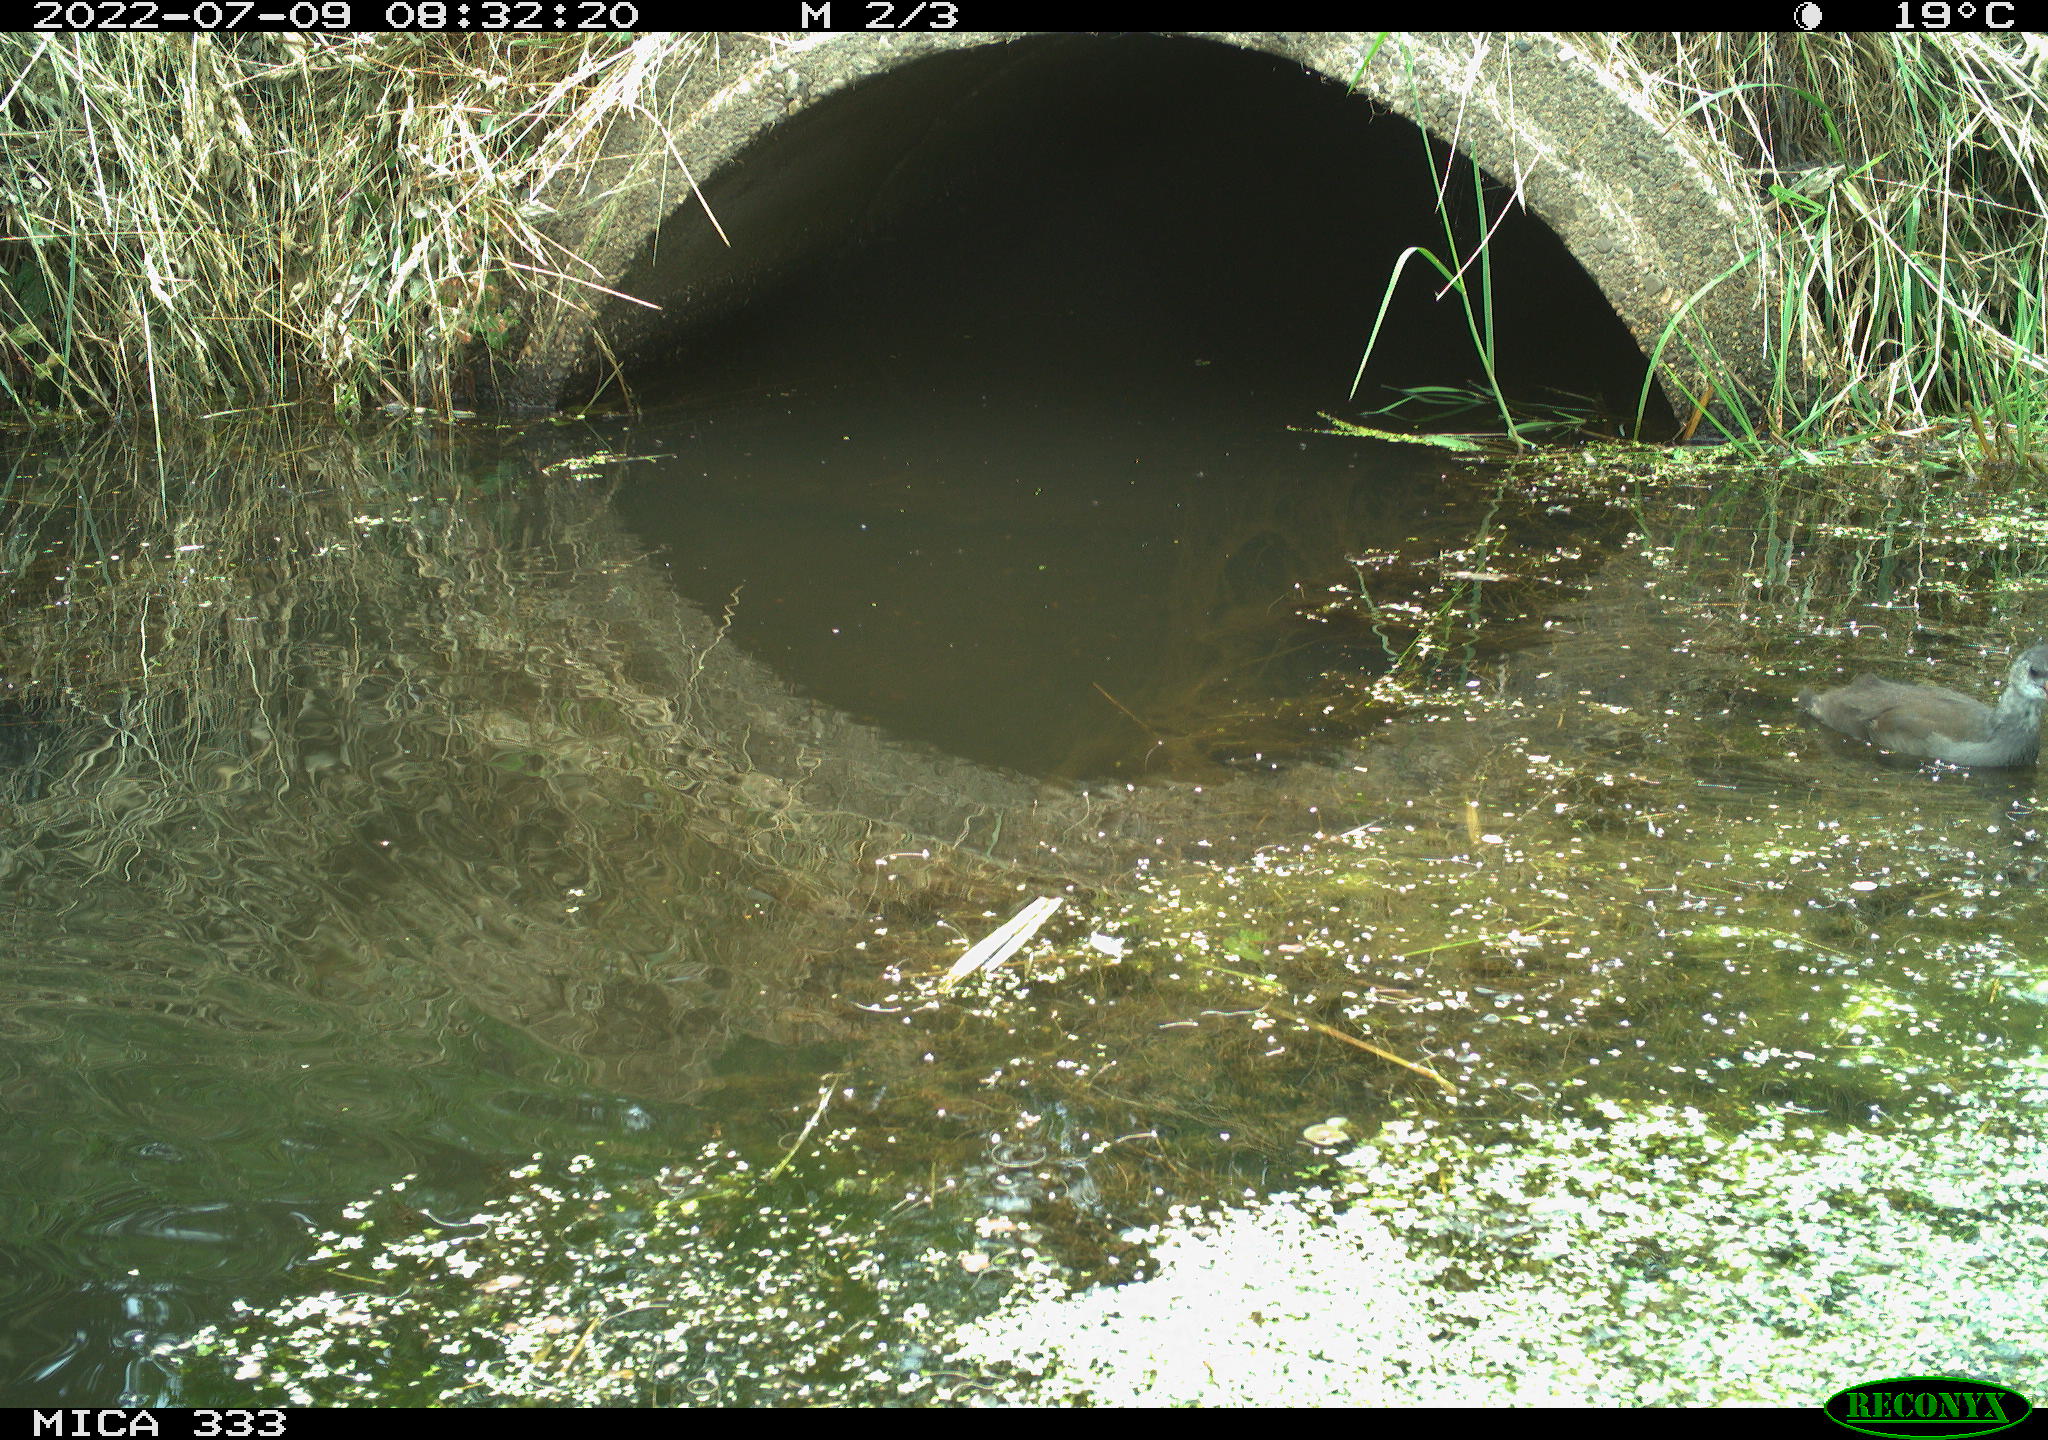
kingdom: Animalia
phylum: Chordata
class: Aves
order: Gruiformes
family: Rallidae
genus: Gallinula
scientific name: Gallinula chloropus
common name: Common moorhen
